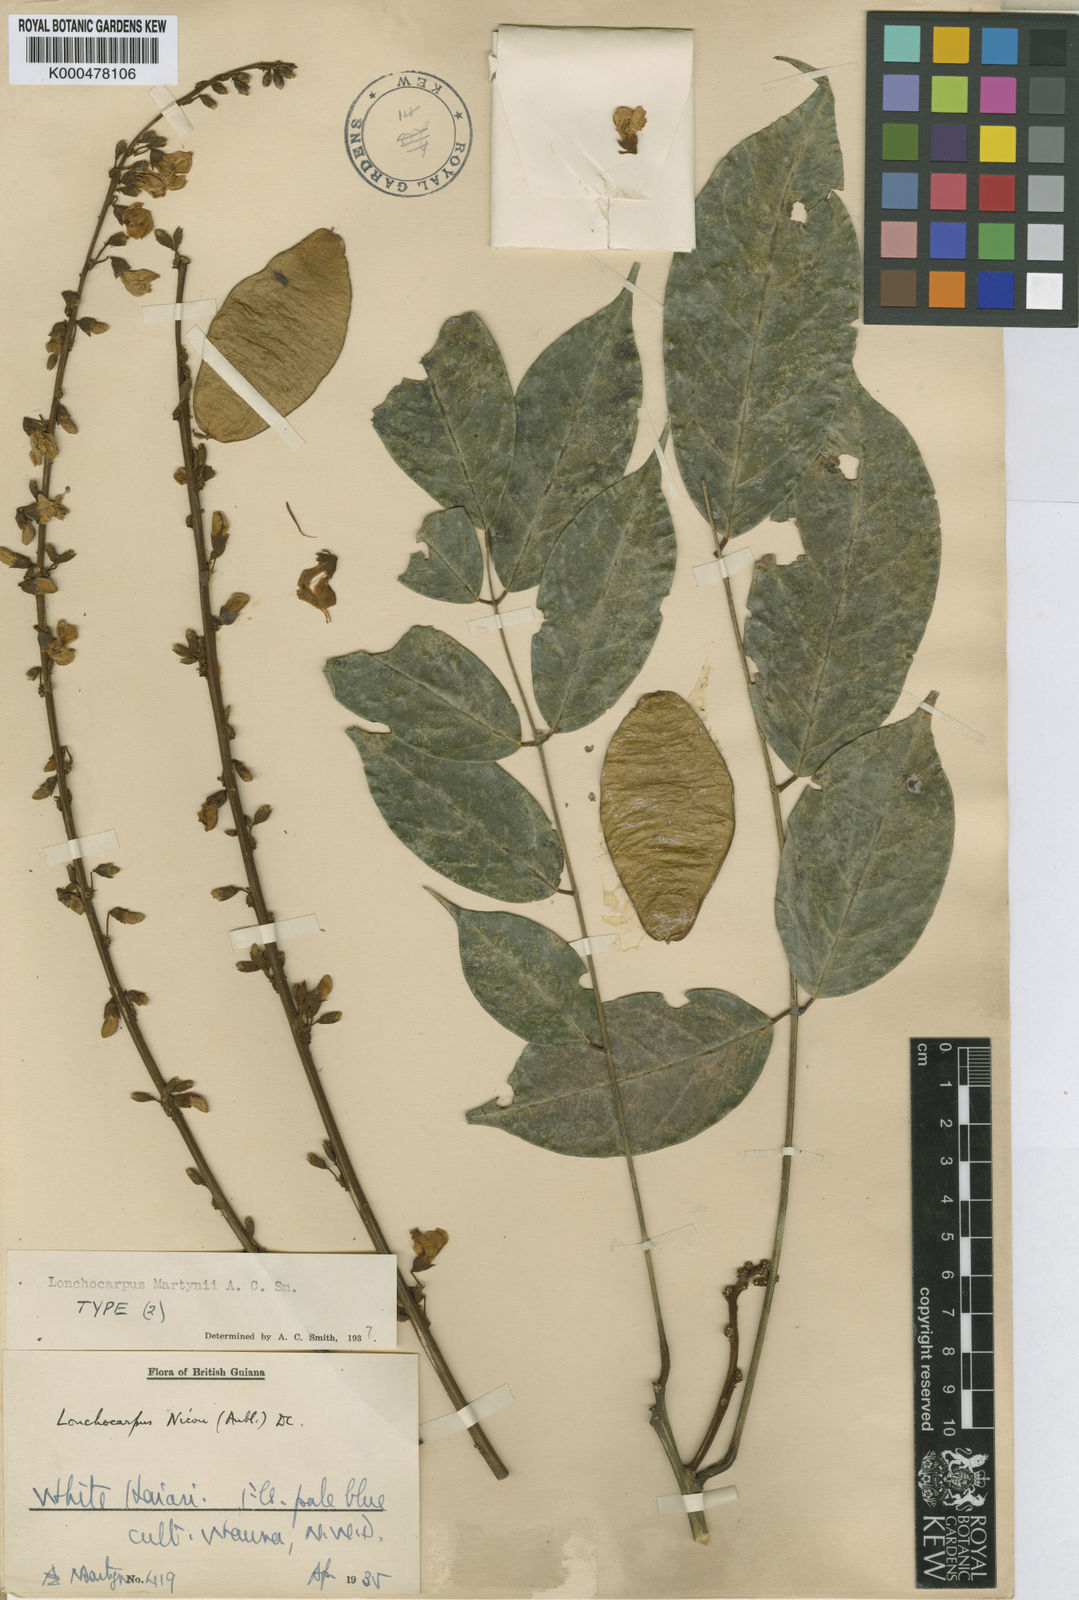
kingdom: Plantae
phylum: Tracheophyta
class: Magnoliopsida
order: Fabales
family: Fabaceae
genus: Lonchocarpus
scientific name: Lonchocarpus
